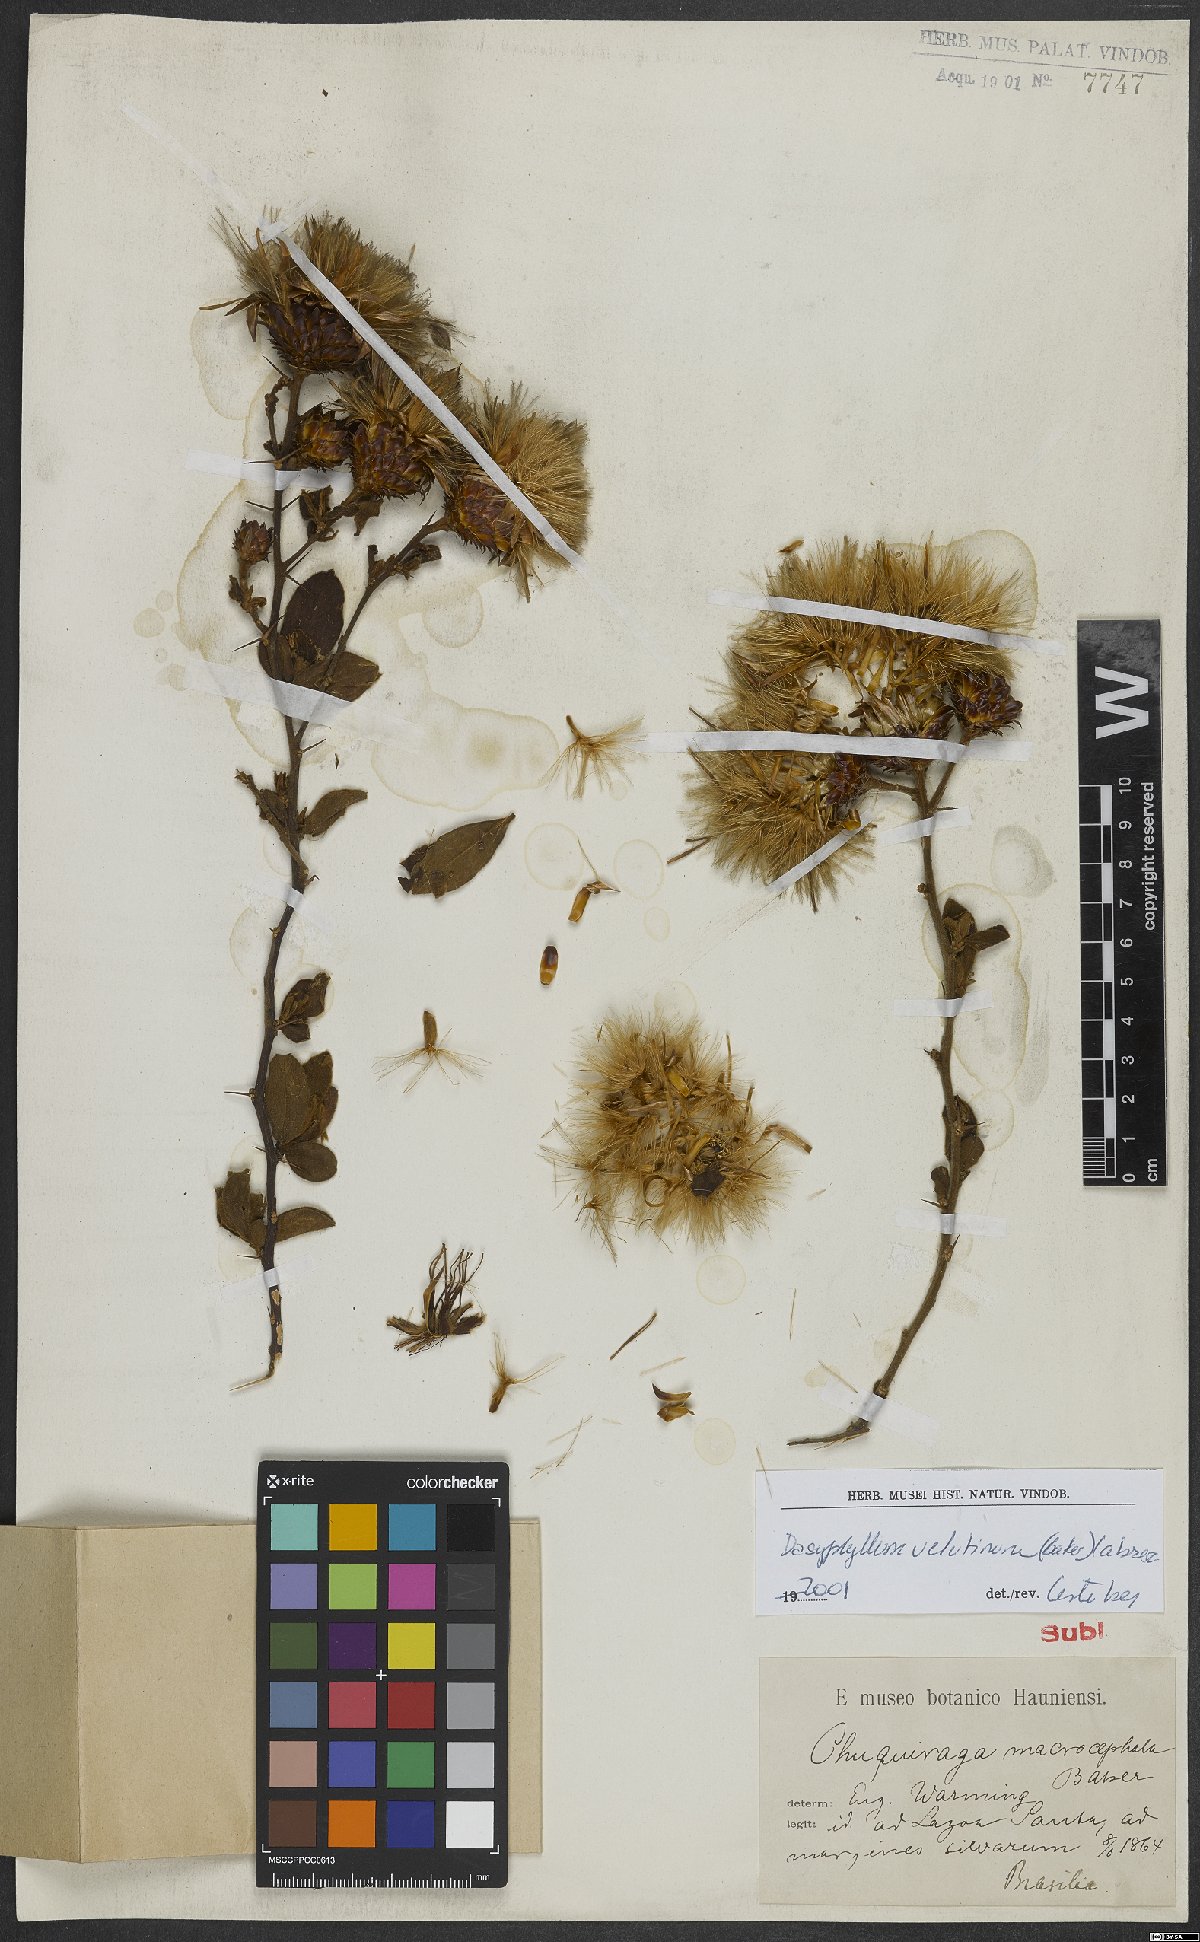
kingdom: Plantae
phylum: Tracheophyta
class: Magnoliopsida
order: Asterales
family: Asteraceae
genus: Dasyphyllum
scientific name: Dasyphyllum velutinum
